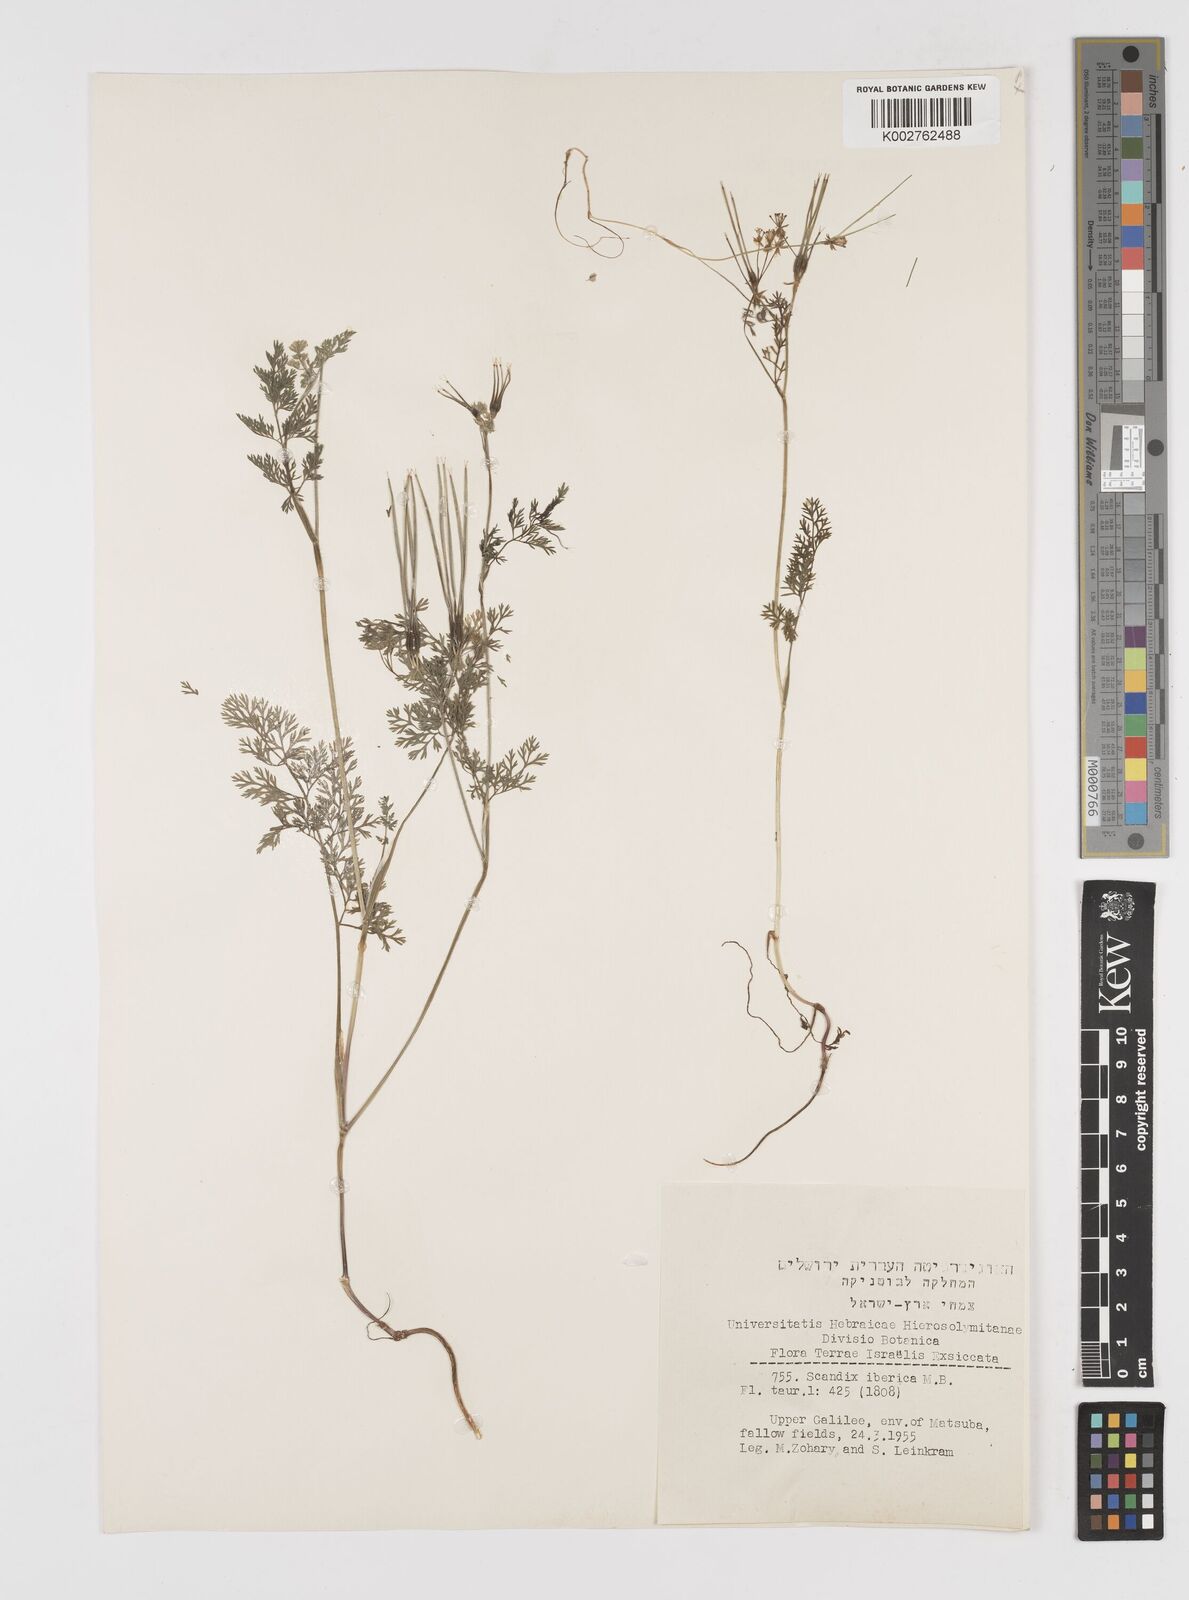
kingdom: Plantae
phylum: Tracheophyta
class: Magnoliopsida
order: Apiales
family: Apiaceae
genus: Scandix
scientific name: Scandix iberica
